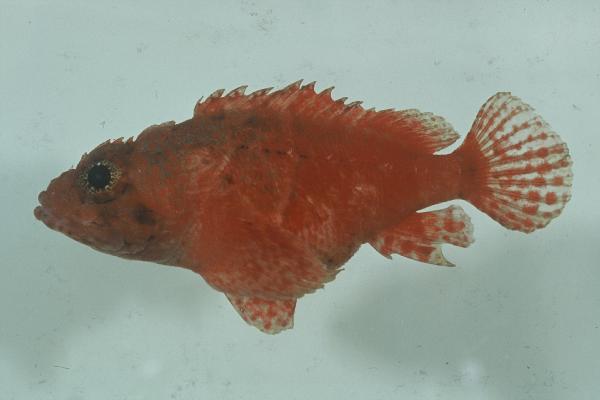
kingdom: Animalia
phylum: Chordata
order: Scorpaeniformes
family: Scorpaenidae
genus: Scorpaenodes
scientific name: Scorpaenodes parvipinnis
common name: Coral scorpionfish
